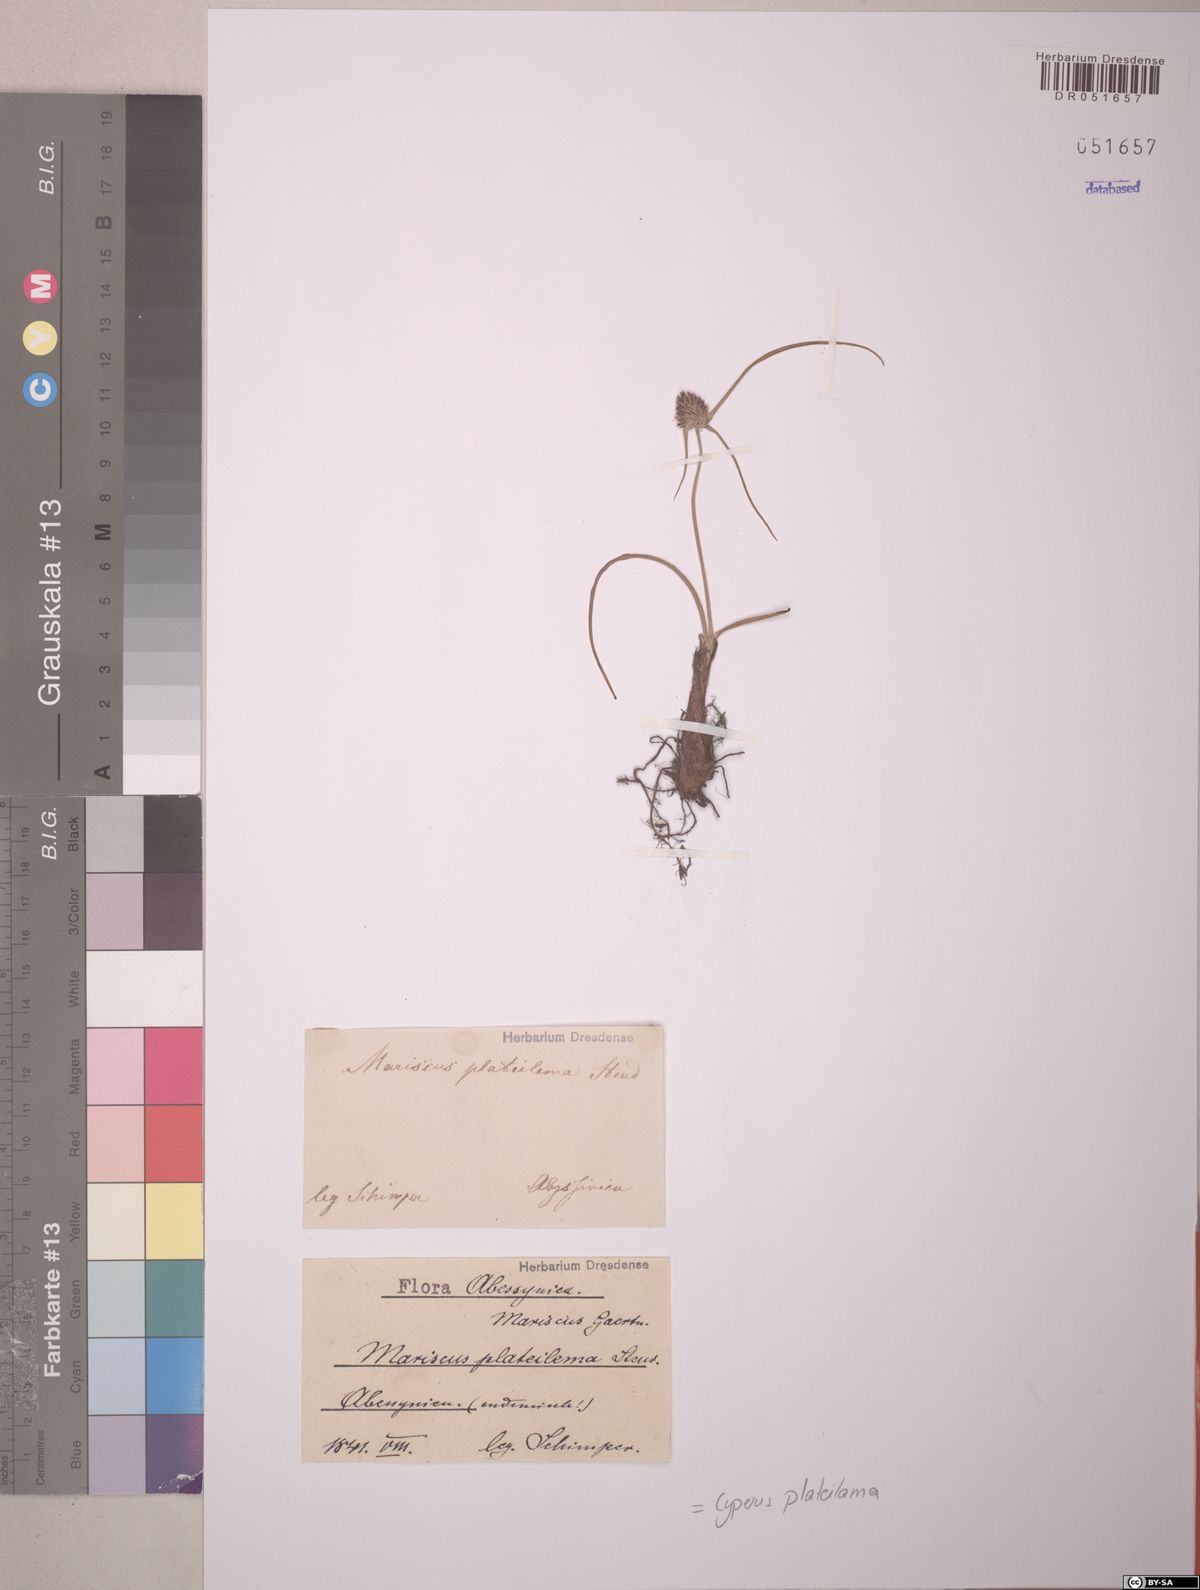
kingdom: Plantae
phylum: Tracheophyta
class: Liliopsida
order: Poales
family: Cyperaceae
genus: Cyperus
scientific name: Cyperus plateilema
